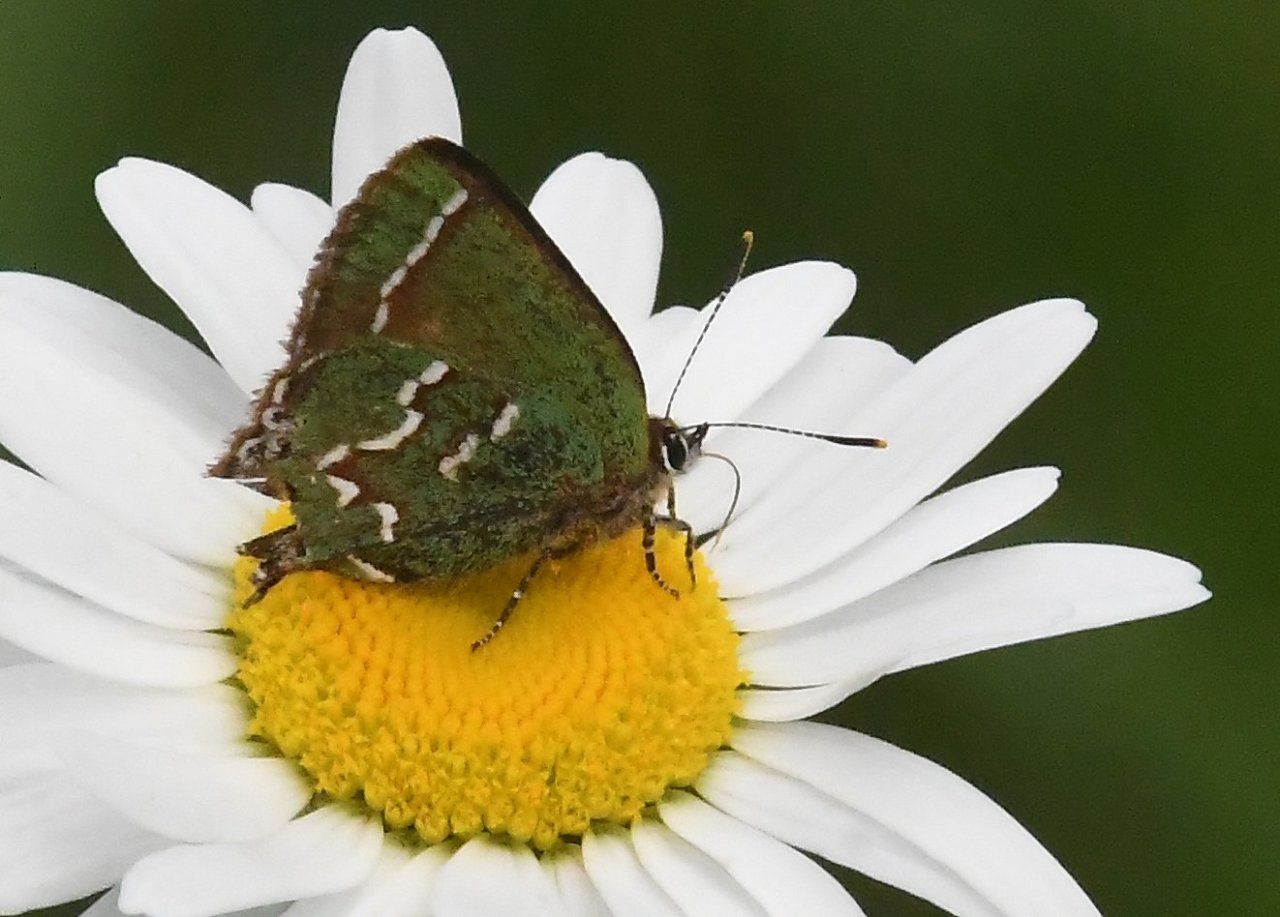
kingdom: Animalia
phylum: Arthropoda
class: Insecta
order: Lepidoptera
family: Lycaenidae
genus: Mitoura
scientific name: Mitoura gryneus
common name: Juniper Hairstreak
